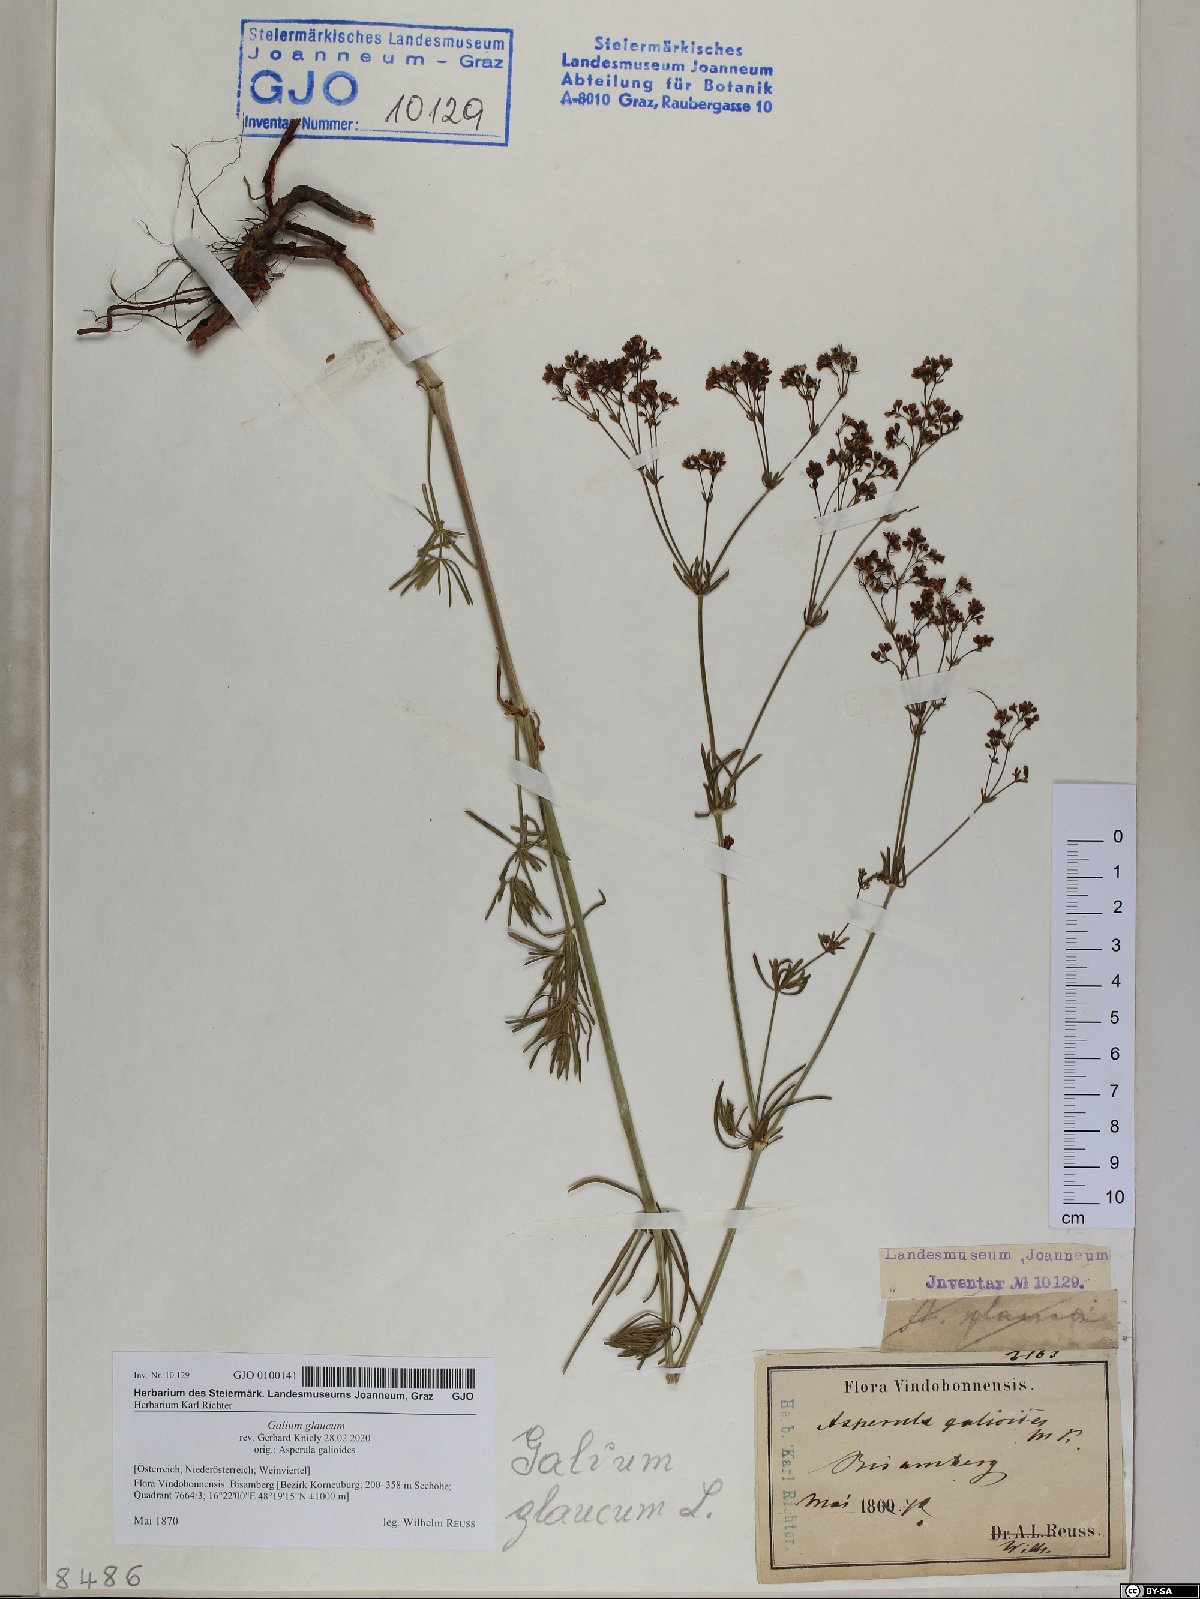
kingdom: Plantae
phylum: Tracheophyta
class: Magnoliopsida
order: Gentianales
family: Rubiaceae
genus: Galium
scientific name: Galium glaucum
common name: Waxy bedstraw
